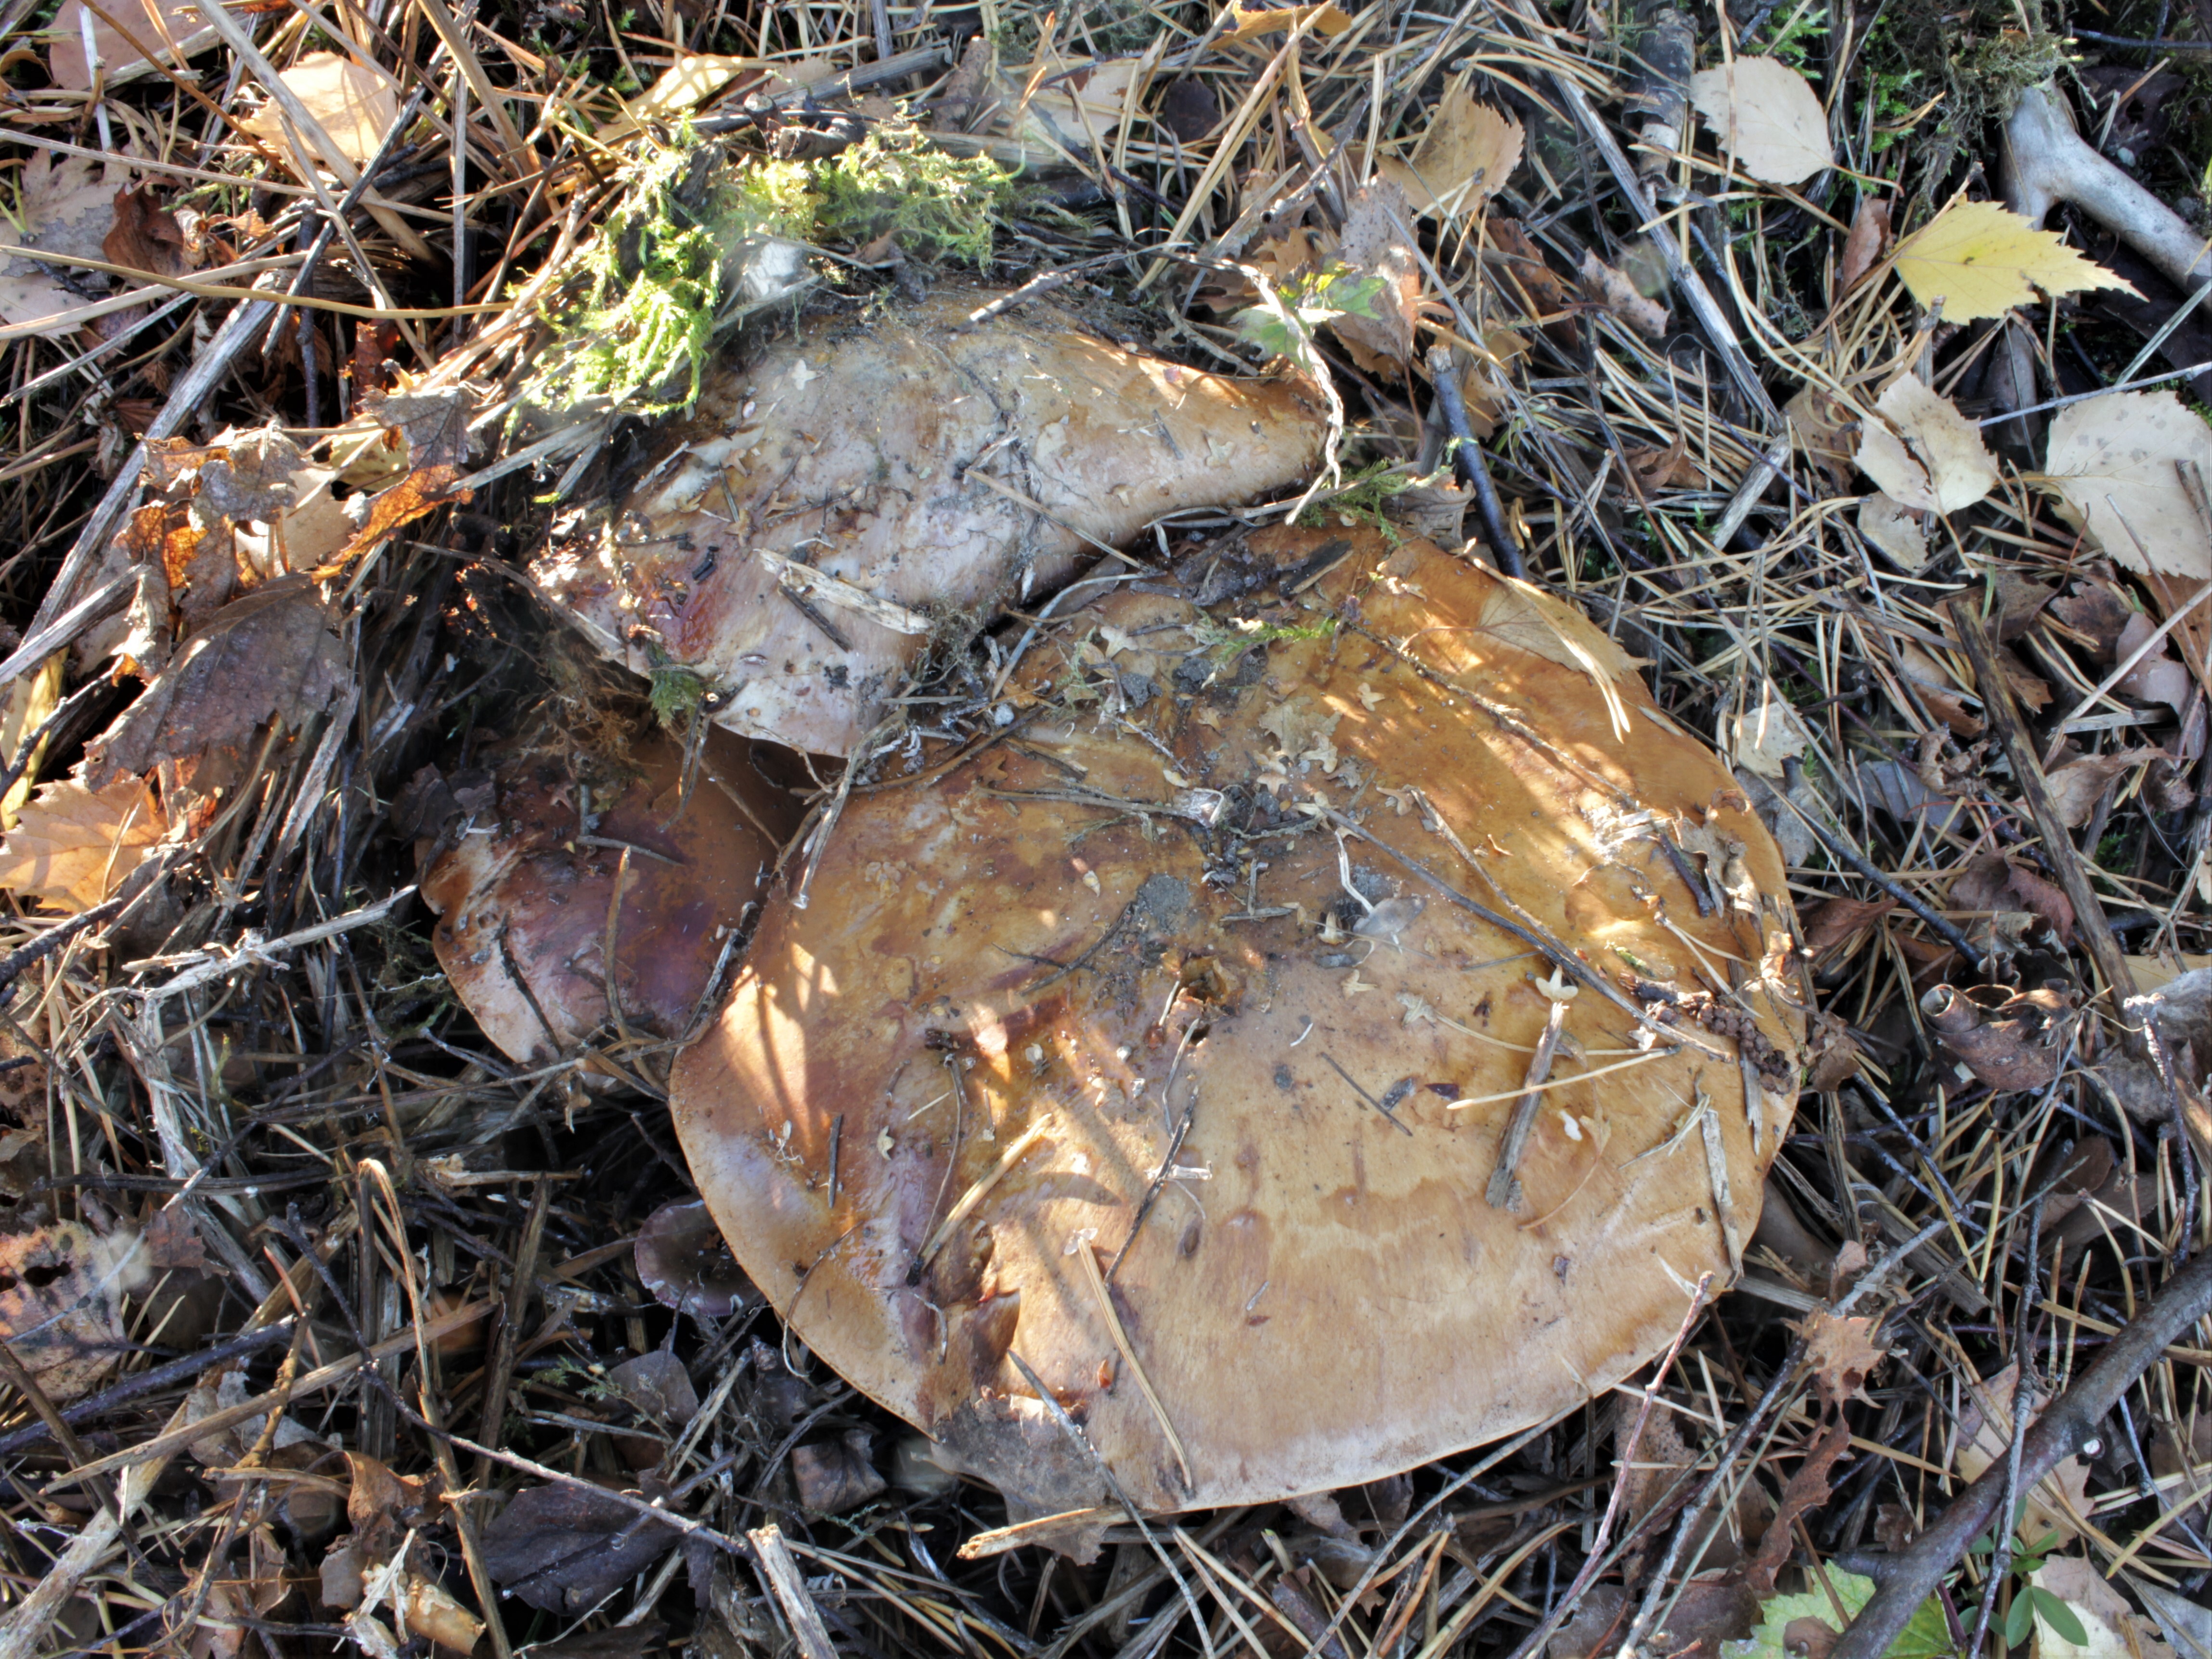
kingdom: Fungi
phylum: Basidiomycota
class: Agaricomycetes
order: Agaricales
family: Cortinariaceae
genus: Phlegmacium
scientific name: Phlegmacium balteatocumatile
